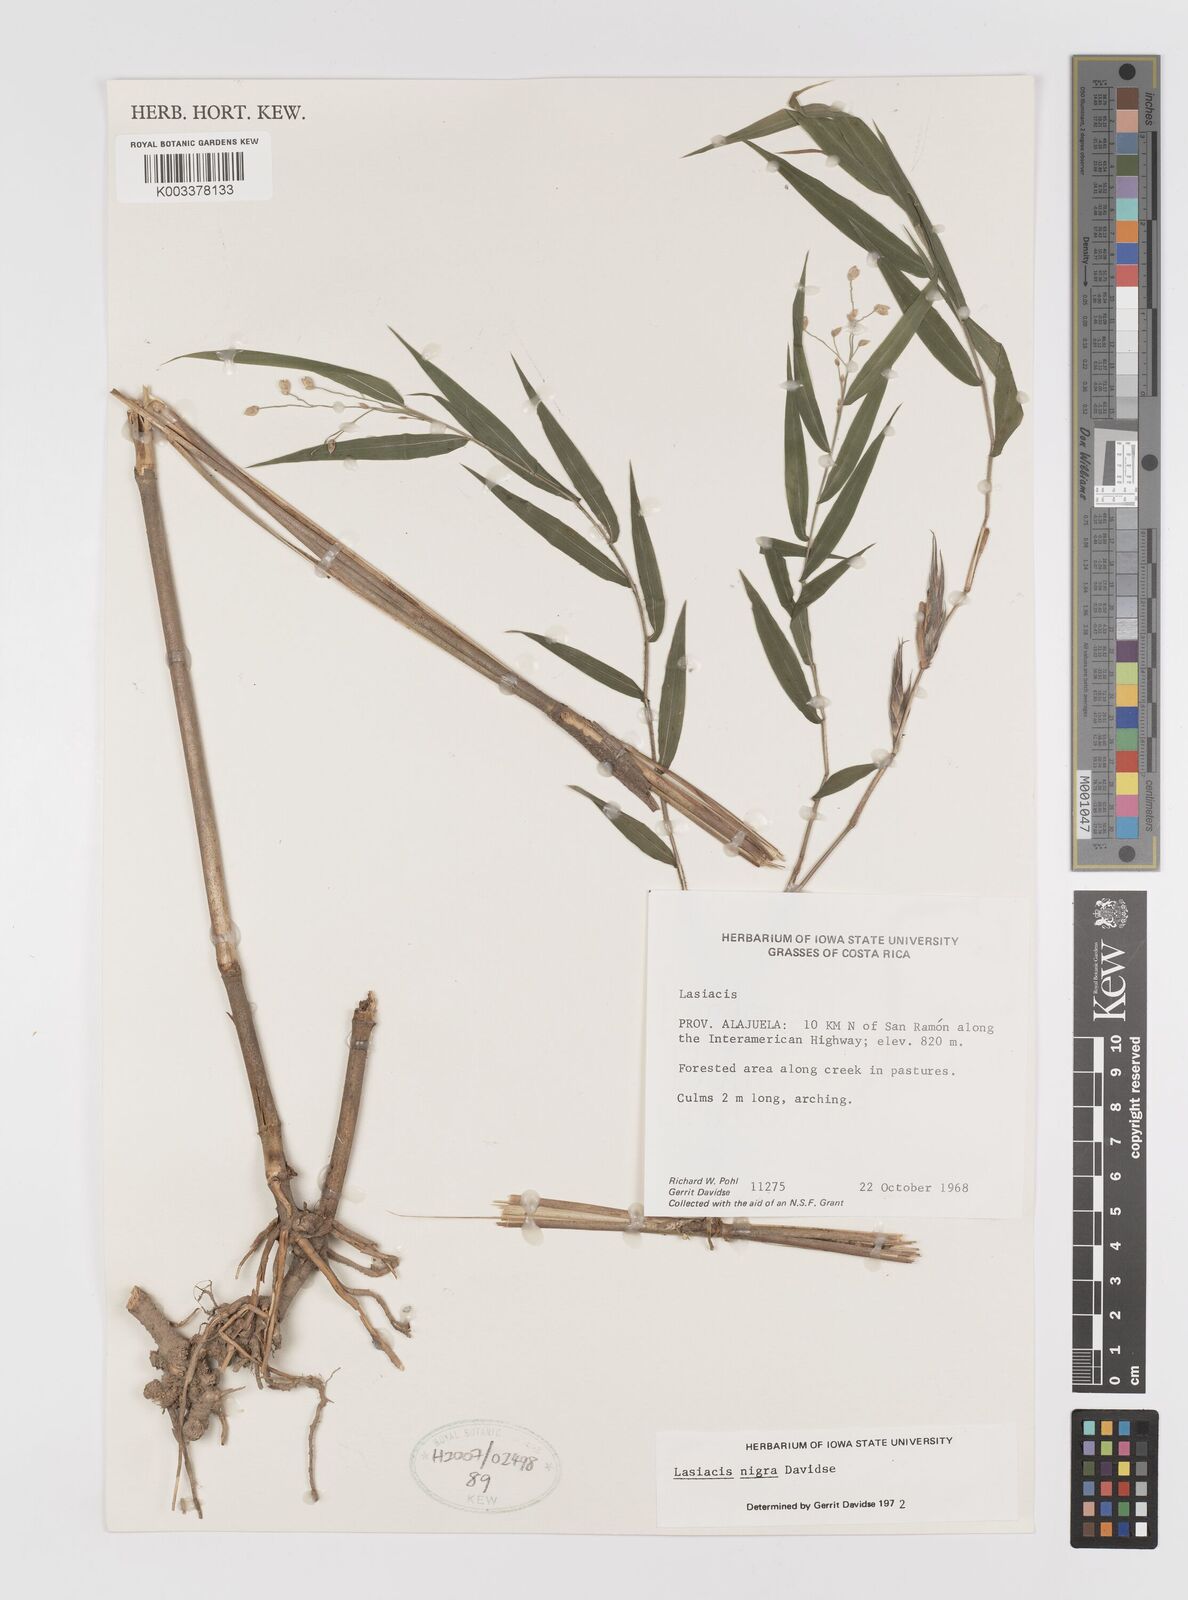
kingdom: Plantae
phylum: Tracheophyta
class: Liliopsida
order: Poales
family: Poaceae
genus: Lasiacis
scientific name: Lasiacis nigra
